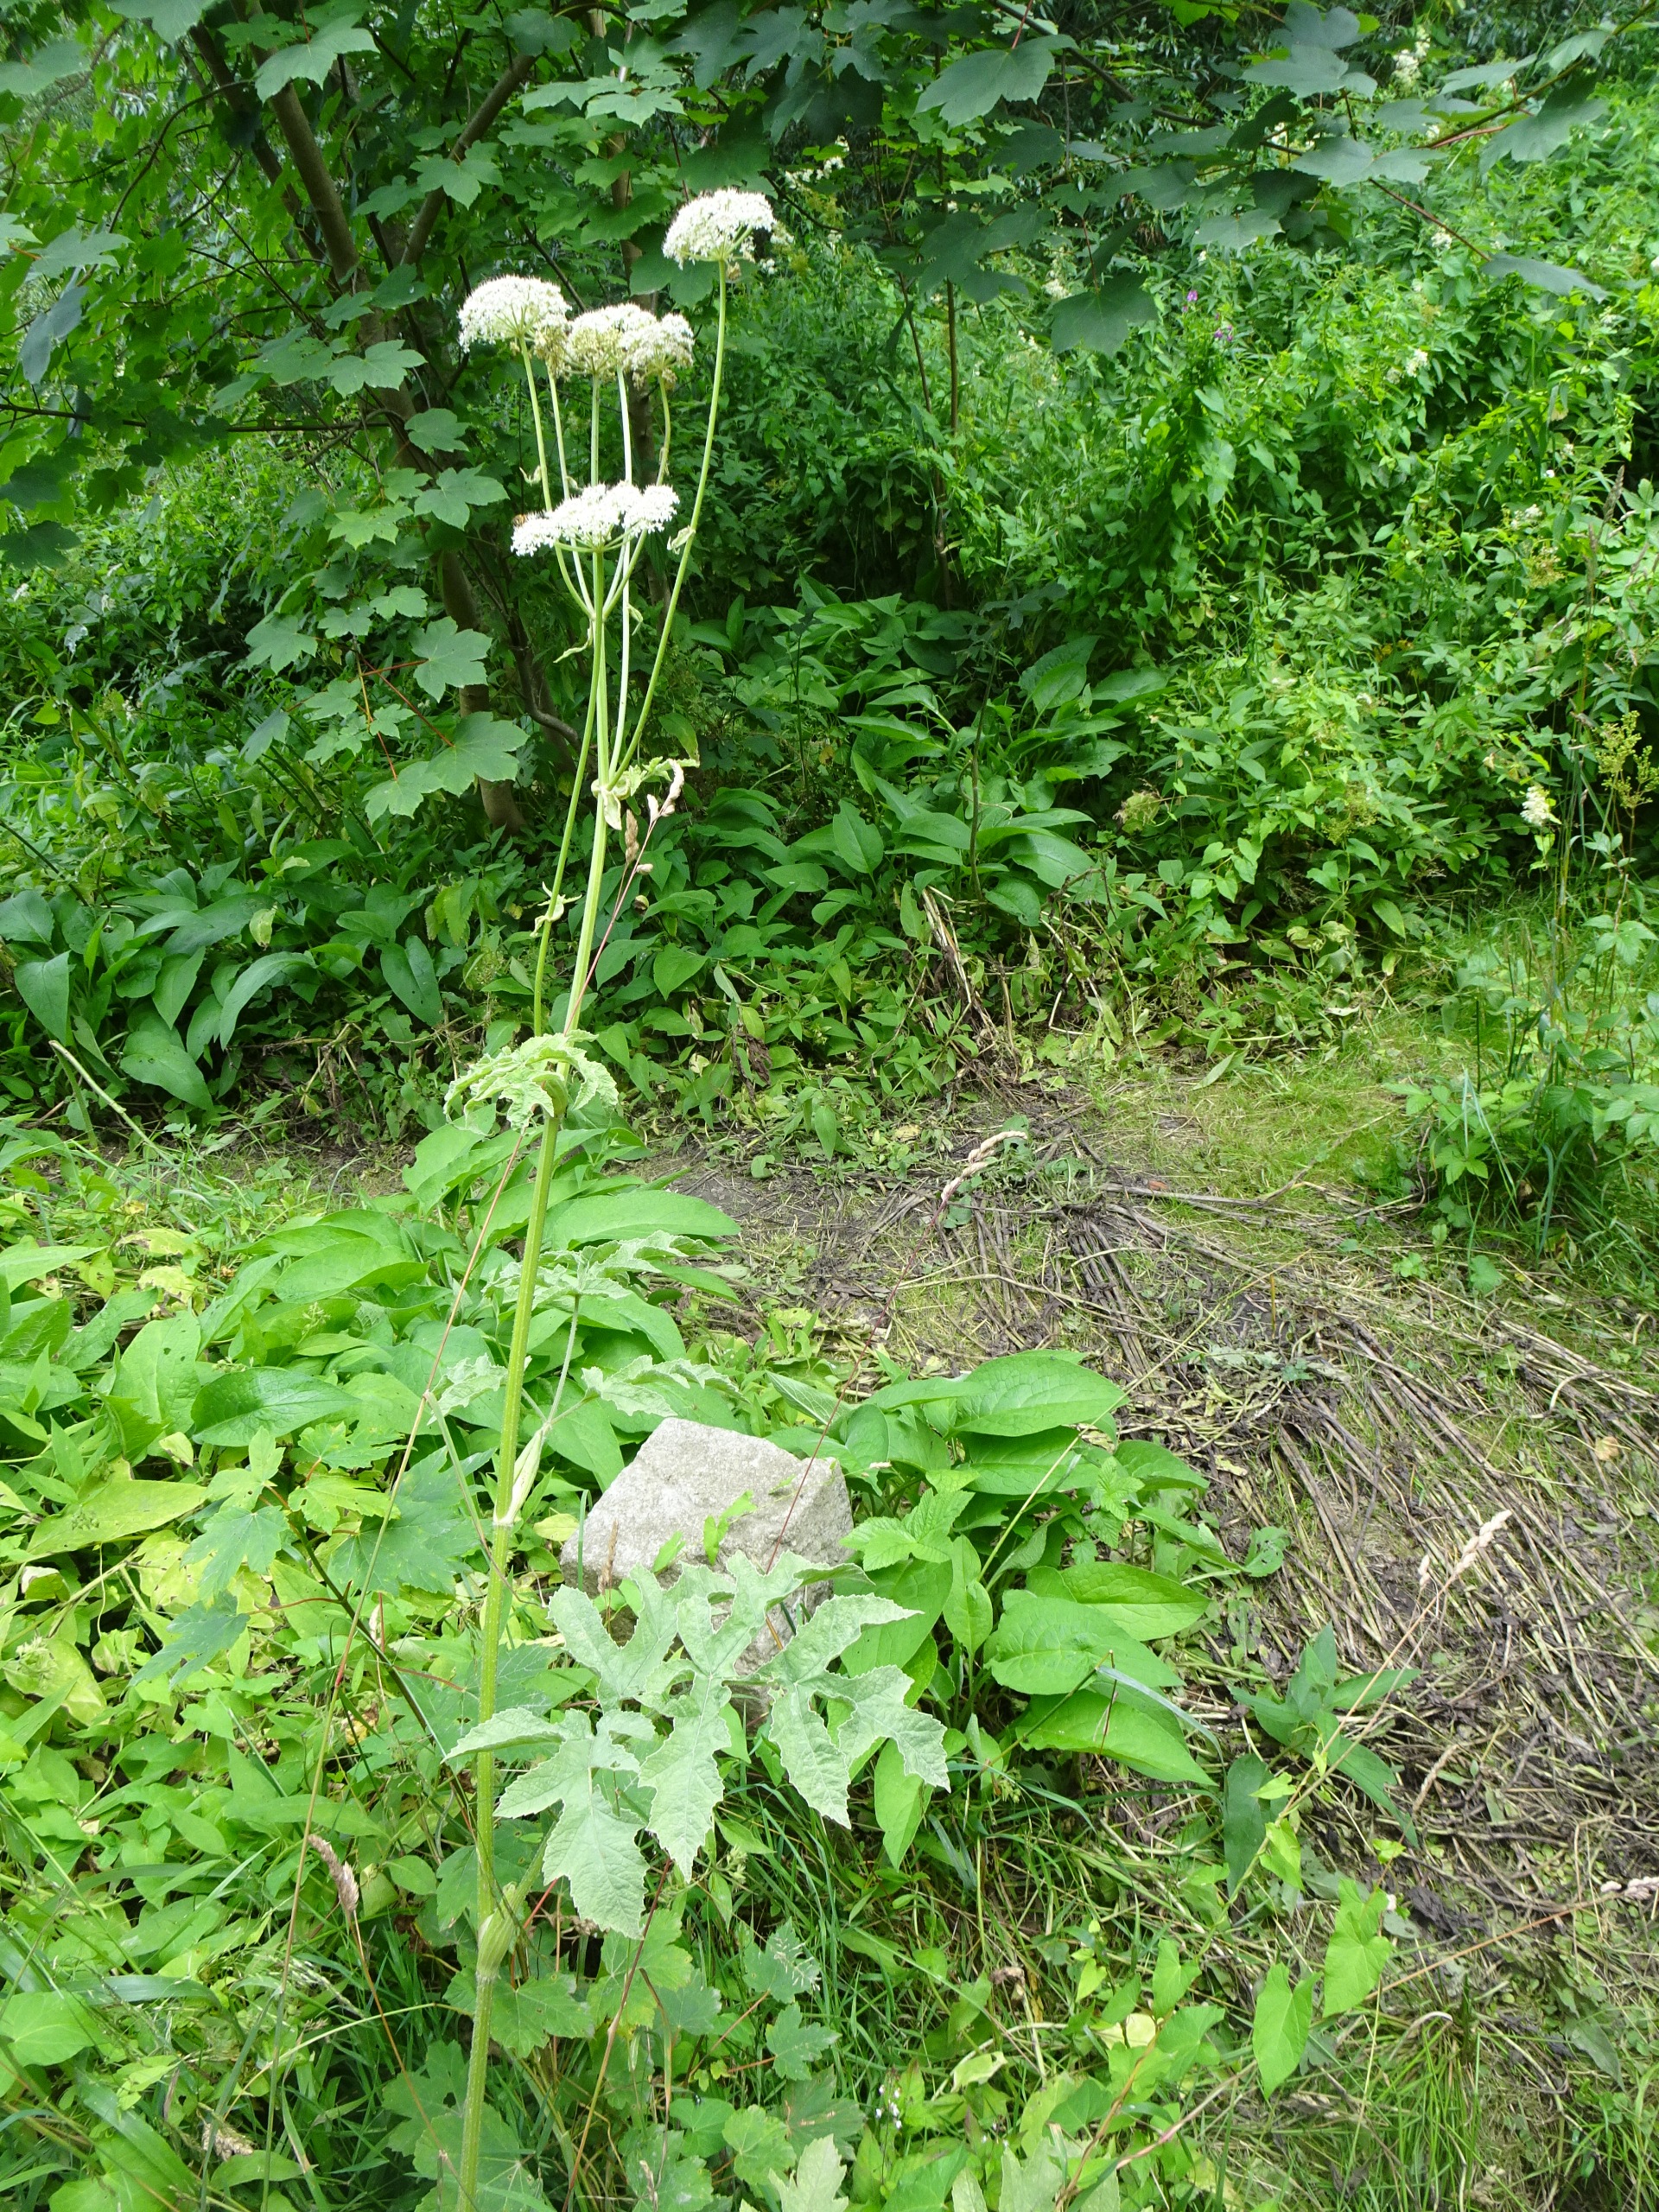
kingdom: Plantae
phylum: Tracheophyta
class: Magnoliopsida
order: Apiales
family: Apiaceae
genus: Heracleum
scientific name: Heracleum sphondylium
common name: Almindelig bjørneklo
